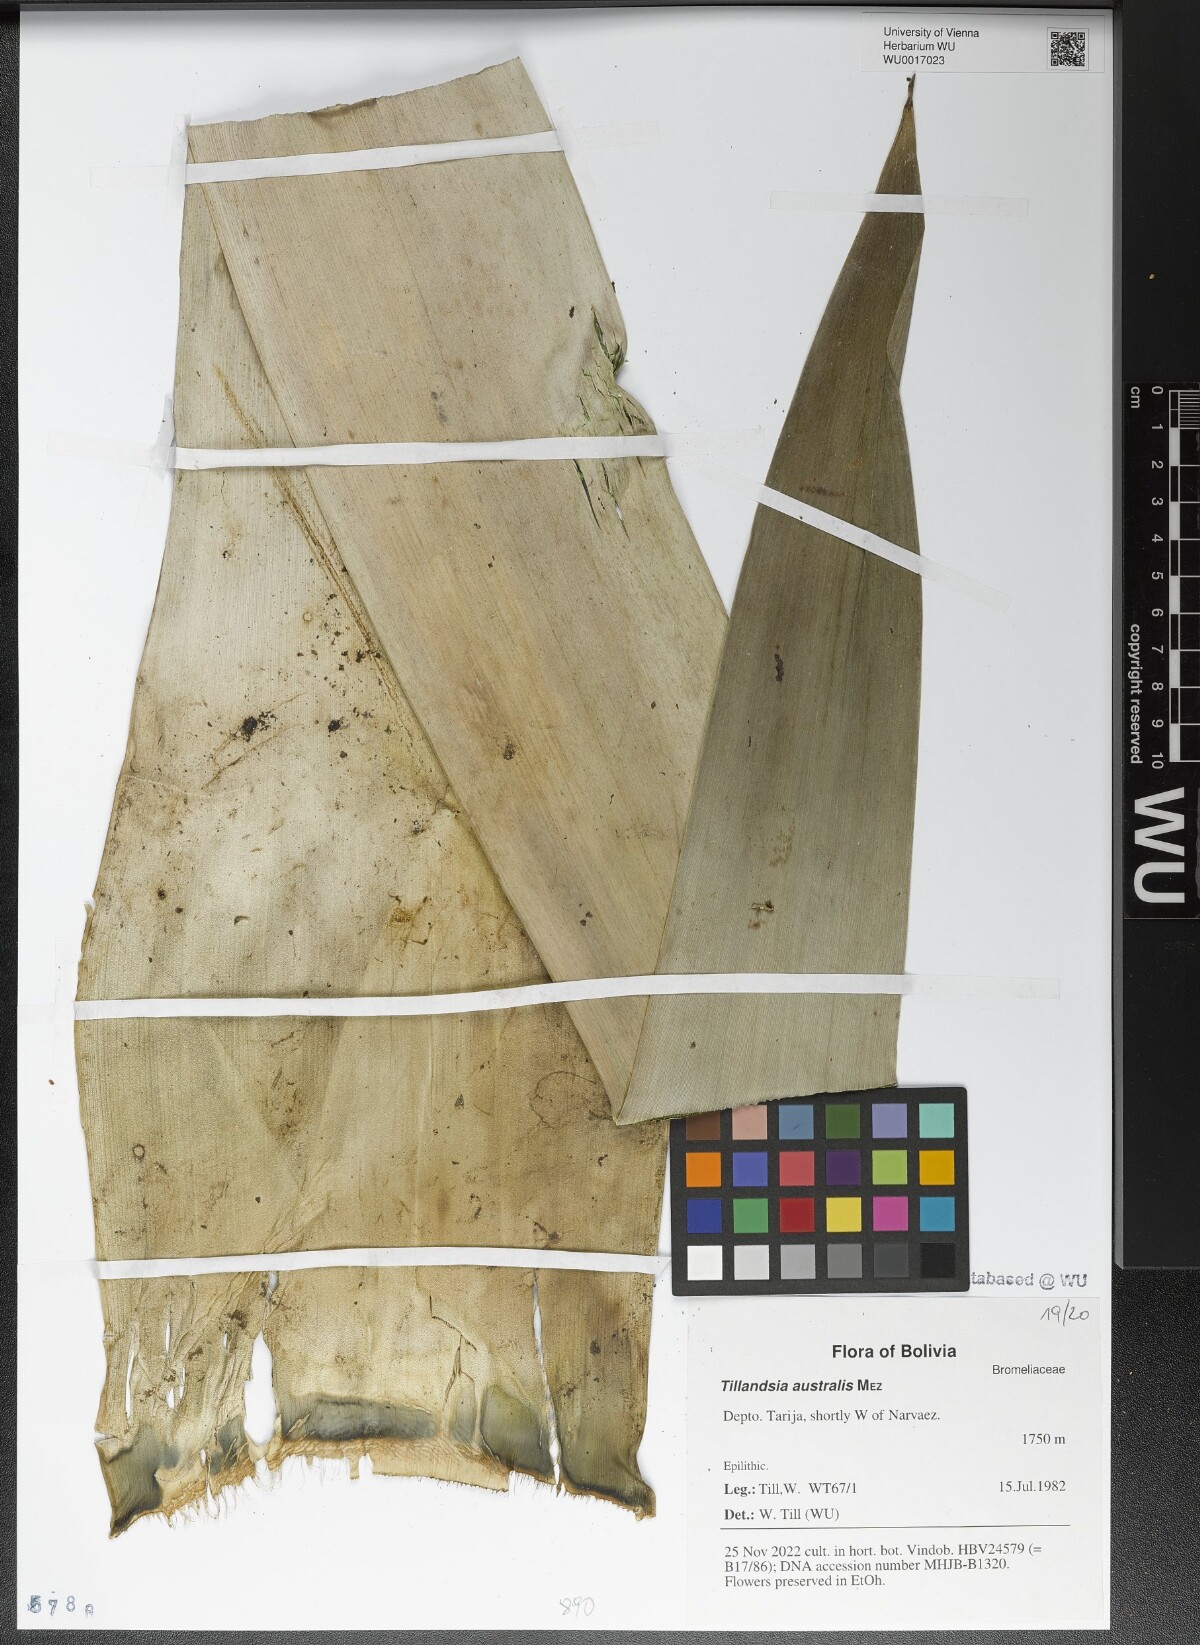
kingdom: Plantae
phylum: Tracheophyta
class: Liliopsida
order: Poales
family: Bromeliaceae
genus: Tillandsia
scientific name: Tillandsia australis
